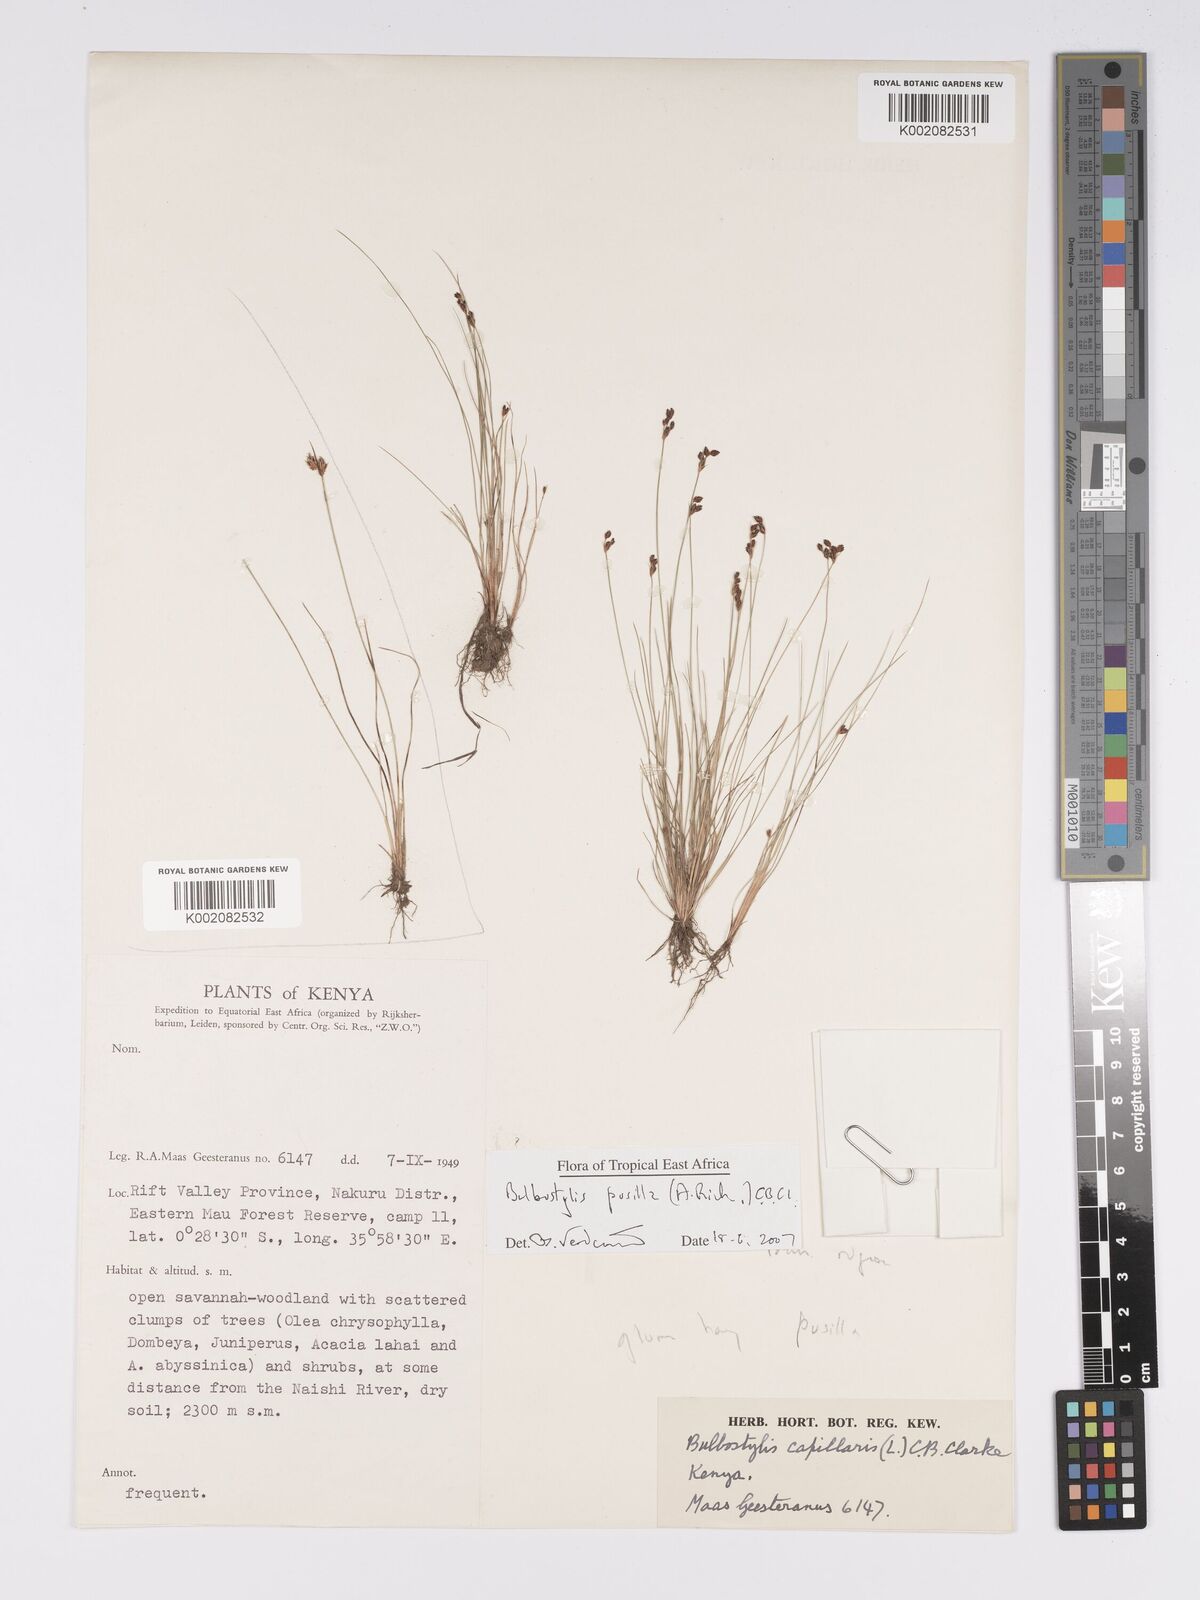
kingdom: Plantae
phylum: Tracheophyta
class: Liliopsida
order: Poales
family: Cyperaceae
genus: Bulbostylis
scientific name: Bulbostylis pusilla
